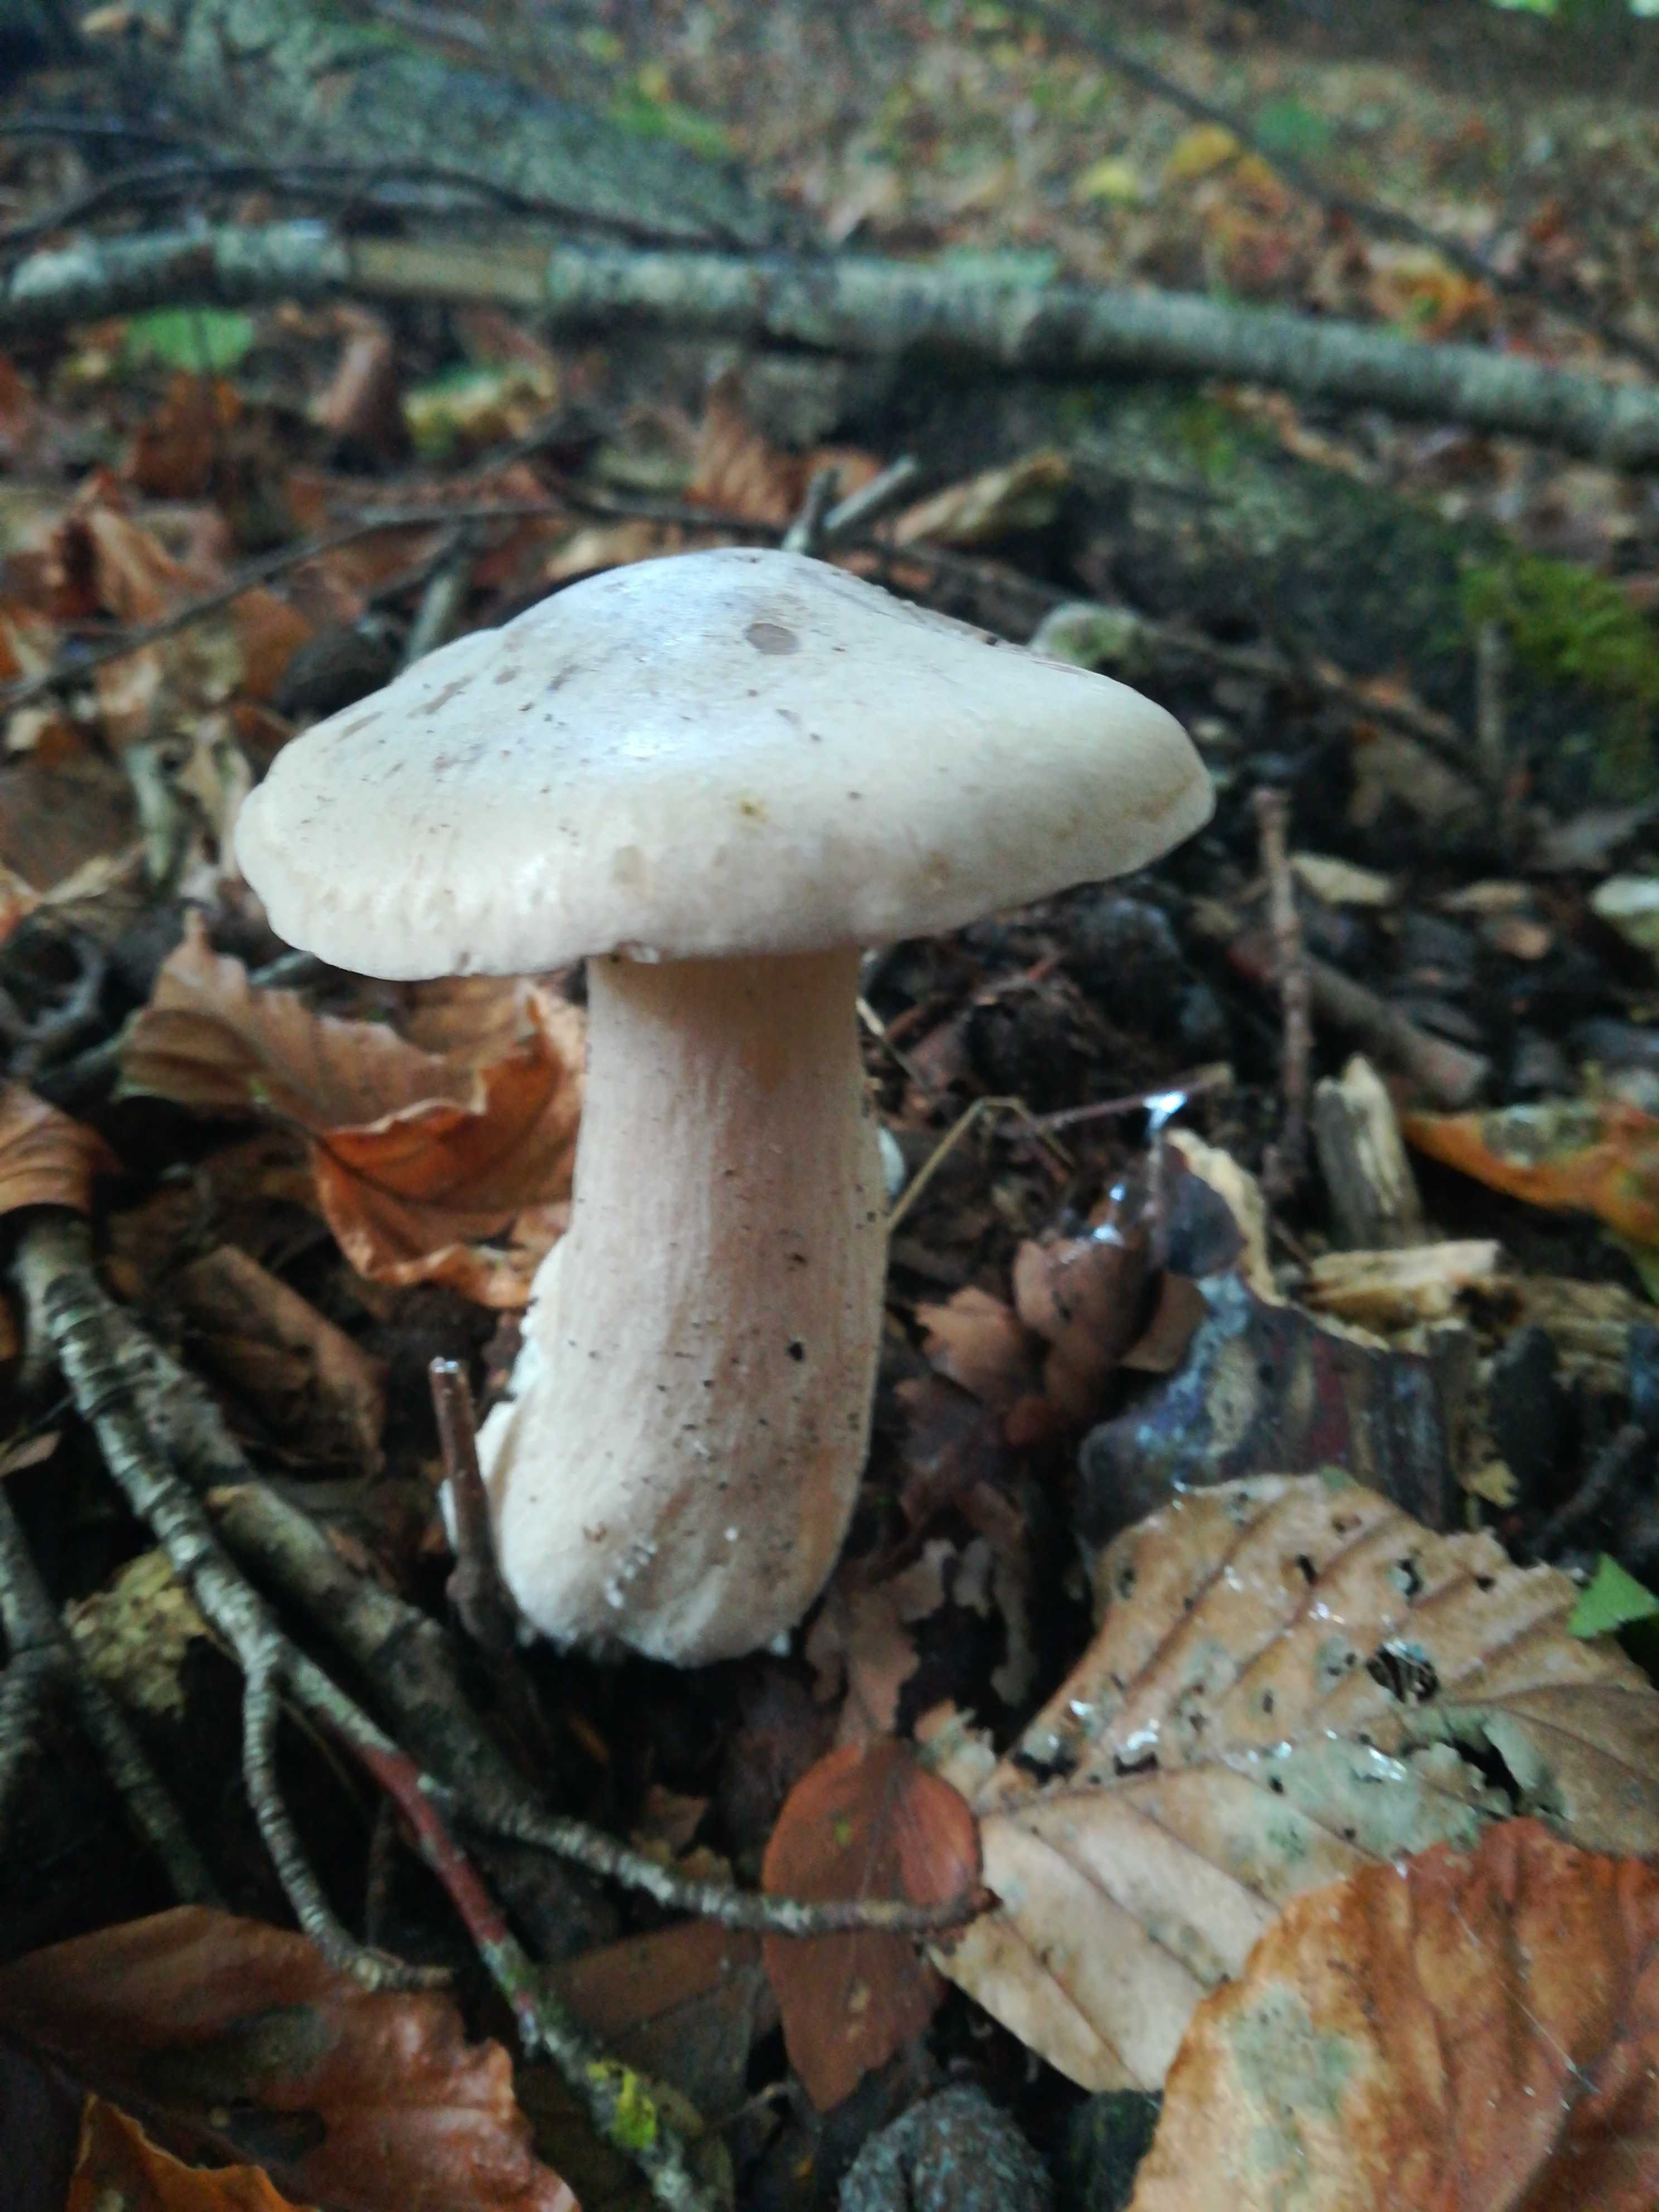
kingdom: Fungi
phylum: Basidiomycota
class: Agaricomycetes
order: Agaricales
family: Tricholomataceae
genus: Clitocybe
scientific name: Clitocybe nebularis
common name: tåge-tragthat
